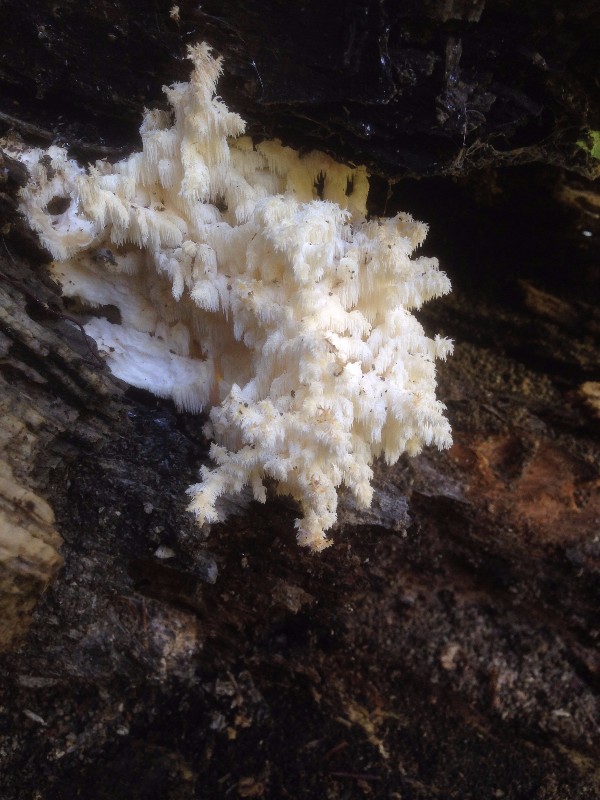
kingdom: Fungi
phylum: Basidiomycota
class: Agaricomycetes
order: Russulales
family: Hericiaceae
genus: Hericium
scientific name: Hericium coralloides
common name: koralpigsvamp
